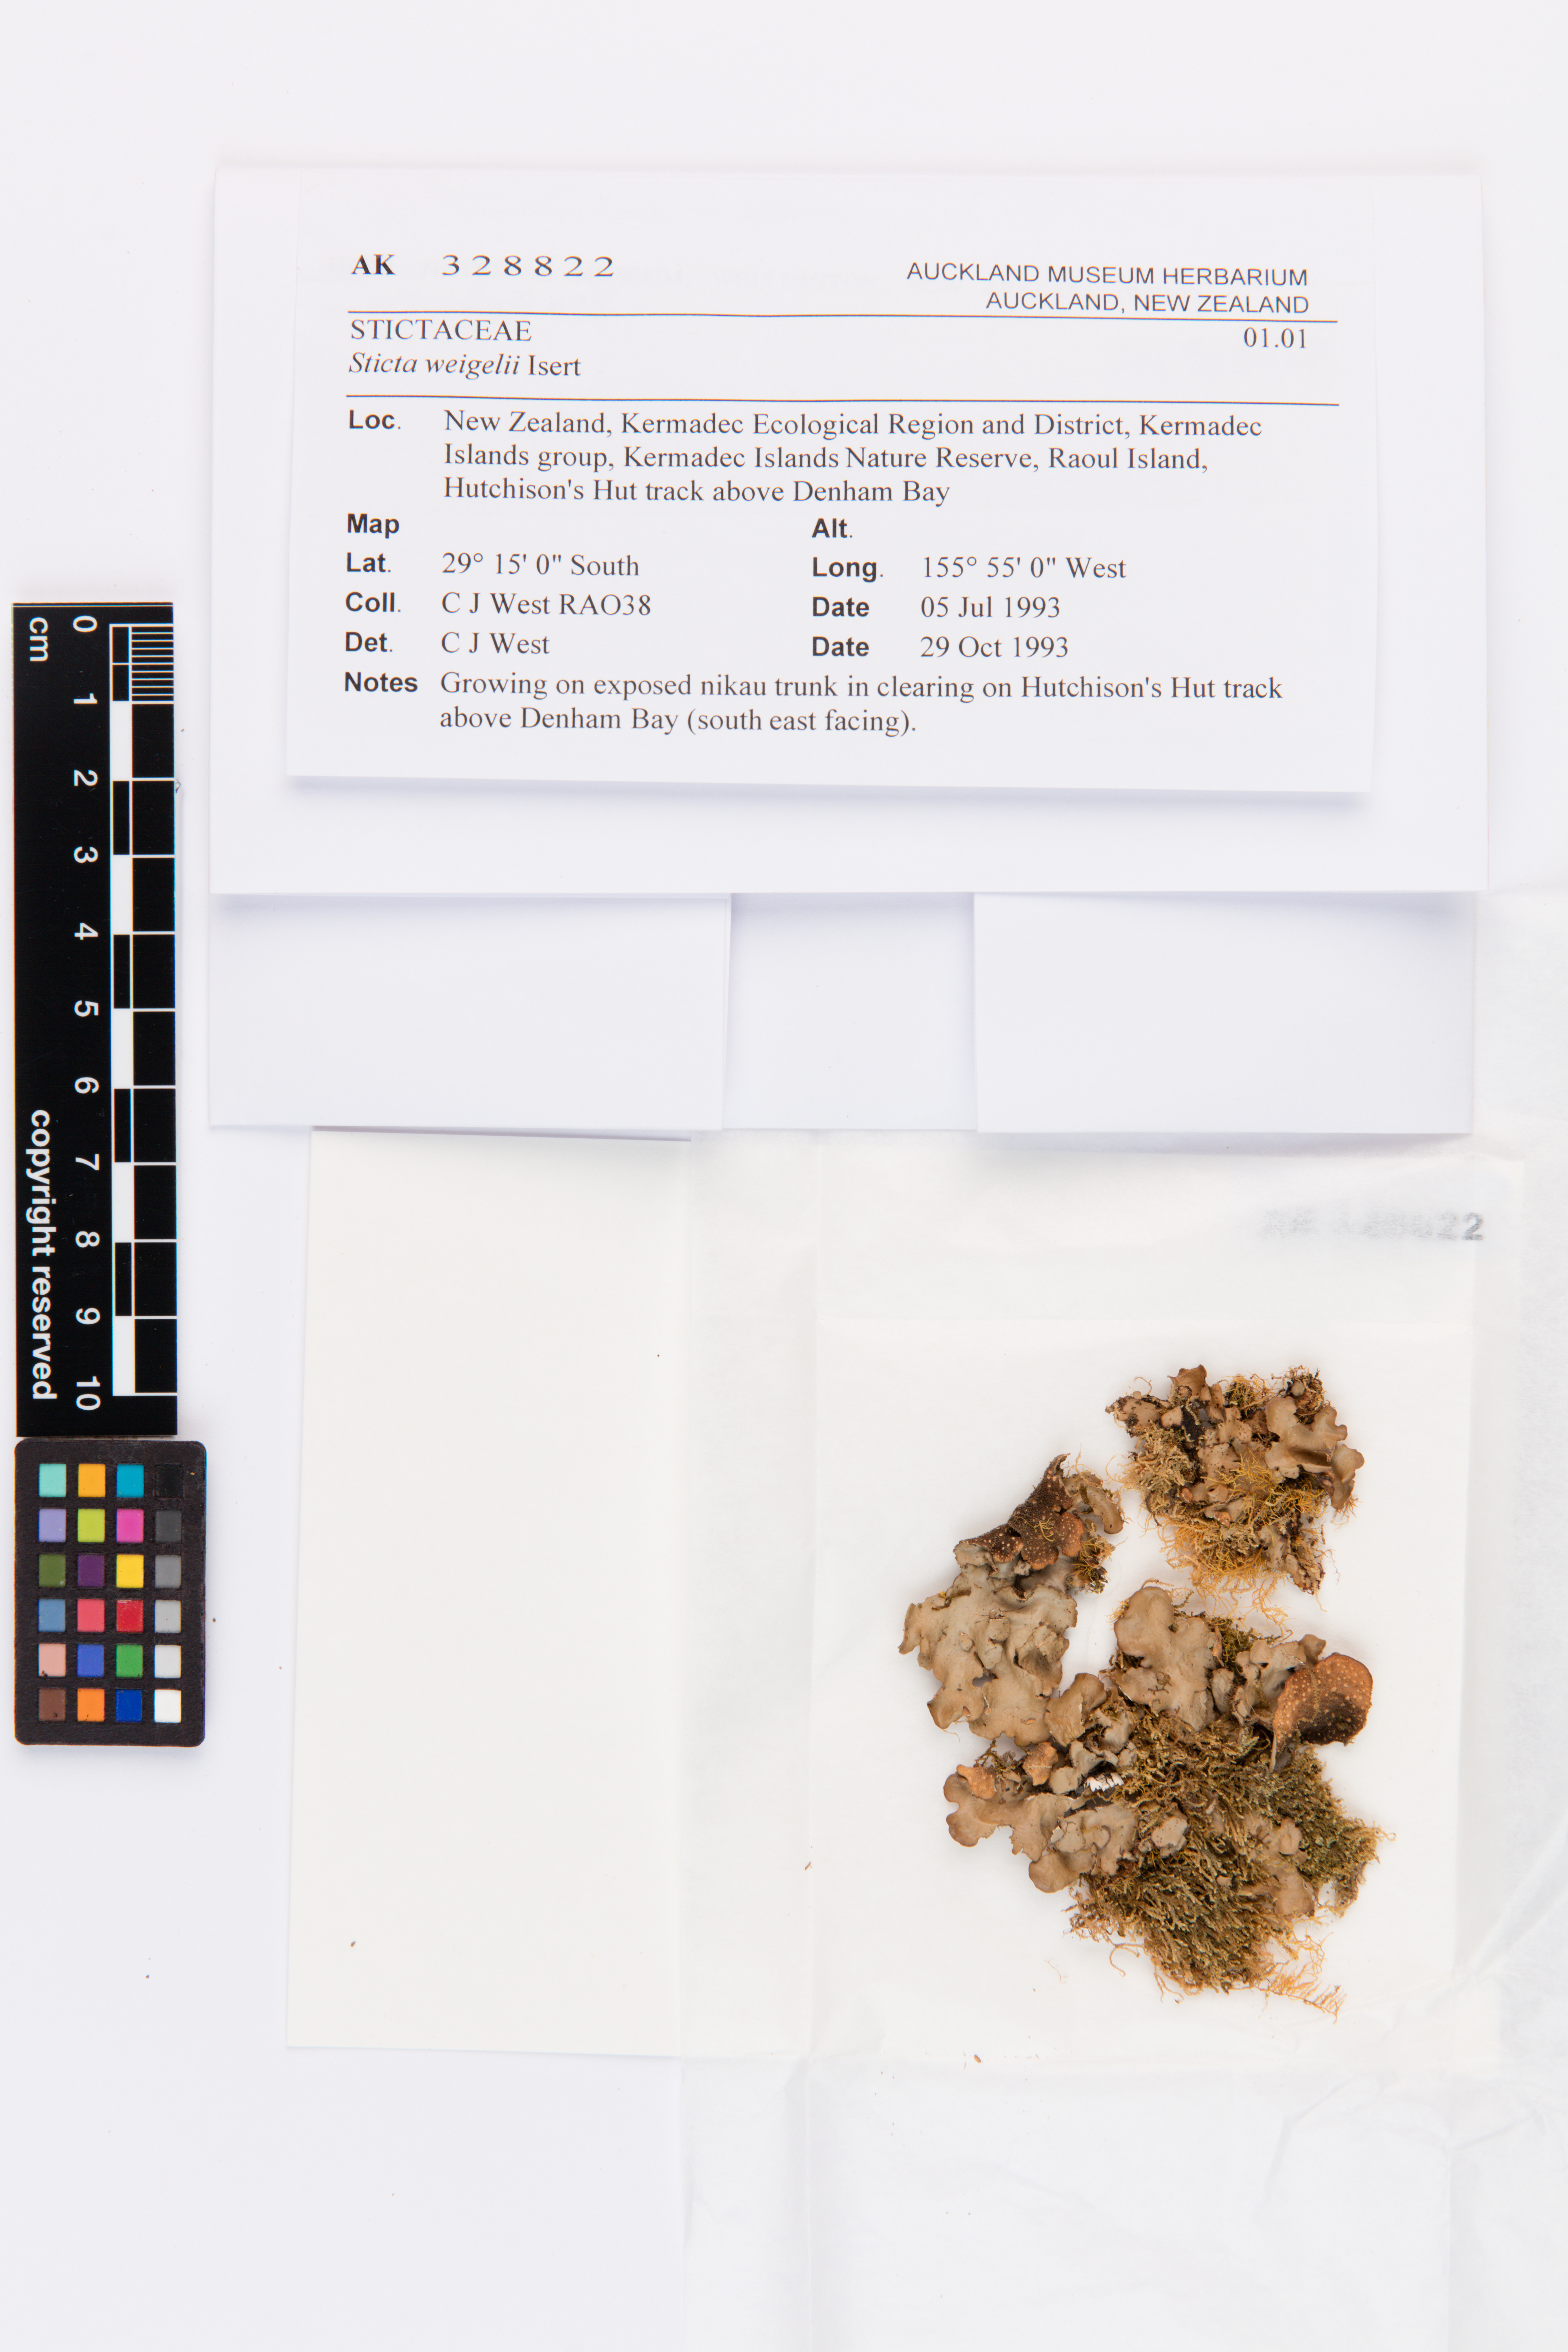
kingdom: Fungi
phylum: Ascomycota
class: Lecanoromycetes
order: Peltigerales
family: Lobariaceae
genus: Sticta
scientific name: Sticta weigelii
